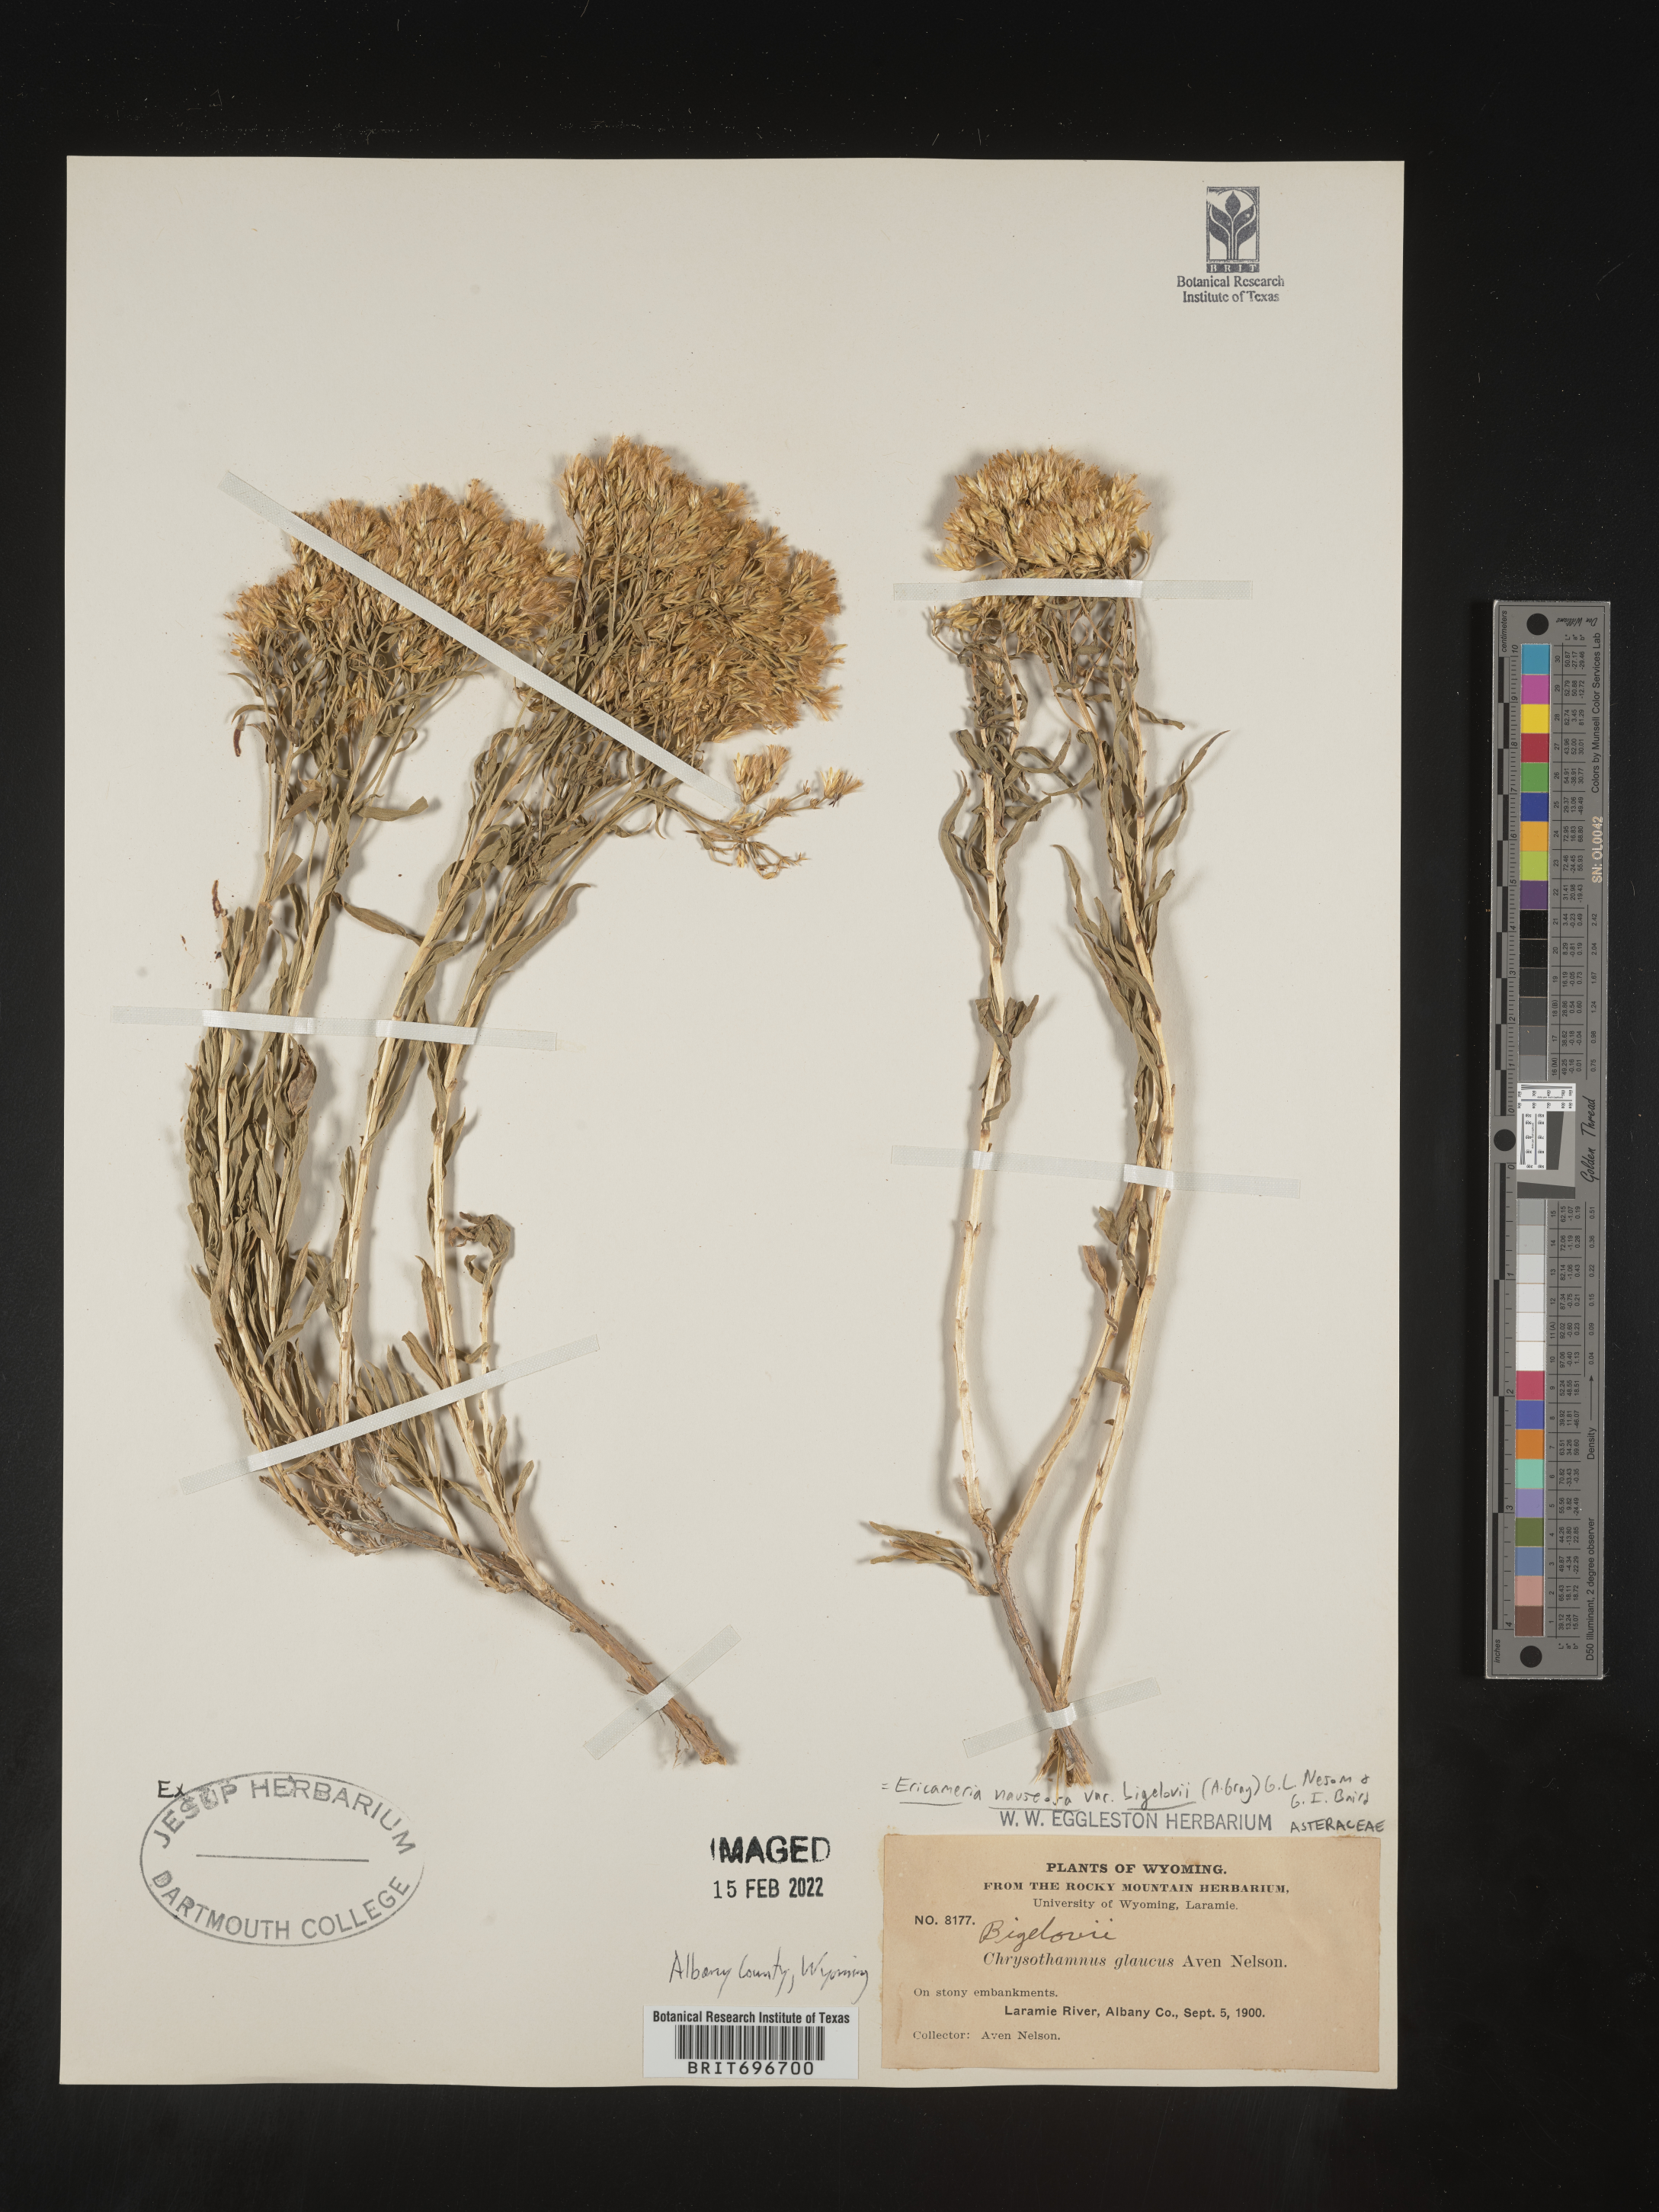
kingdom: Plantae
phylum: Tracheophyta
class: Magnoliopsida
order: Asterales
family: Asteraceae
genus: Ericameria
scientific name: Ericameria nauseosa
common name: Rubber rabbitbrush
